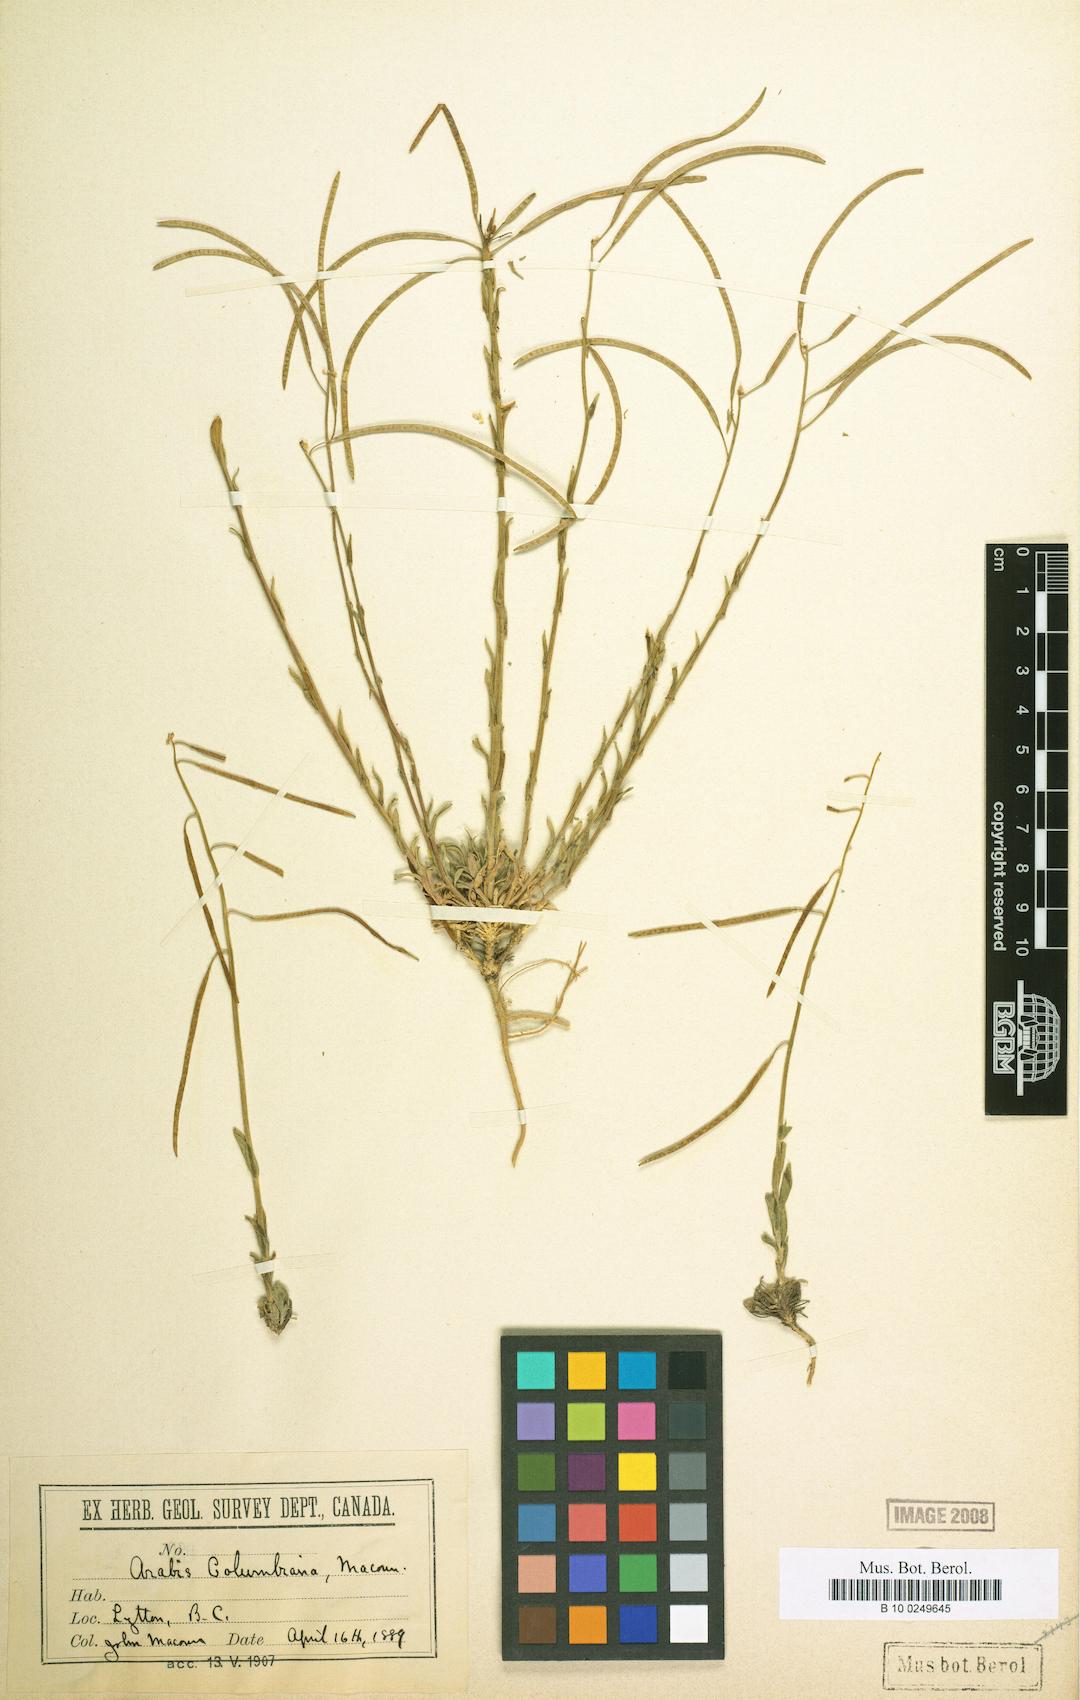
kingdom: Plantae
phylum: Tracheophyta
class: Magnoliopsida
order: Brassicales
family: Brassicaceae
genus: Boechera
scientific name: Boechera pauciflora
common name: Columbia rockcress
